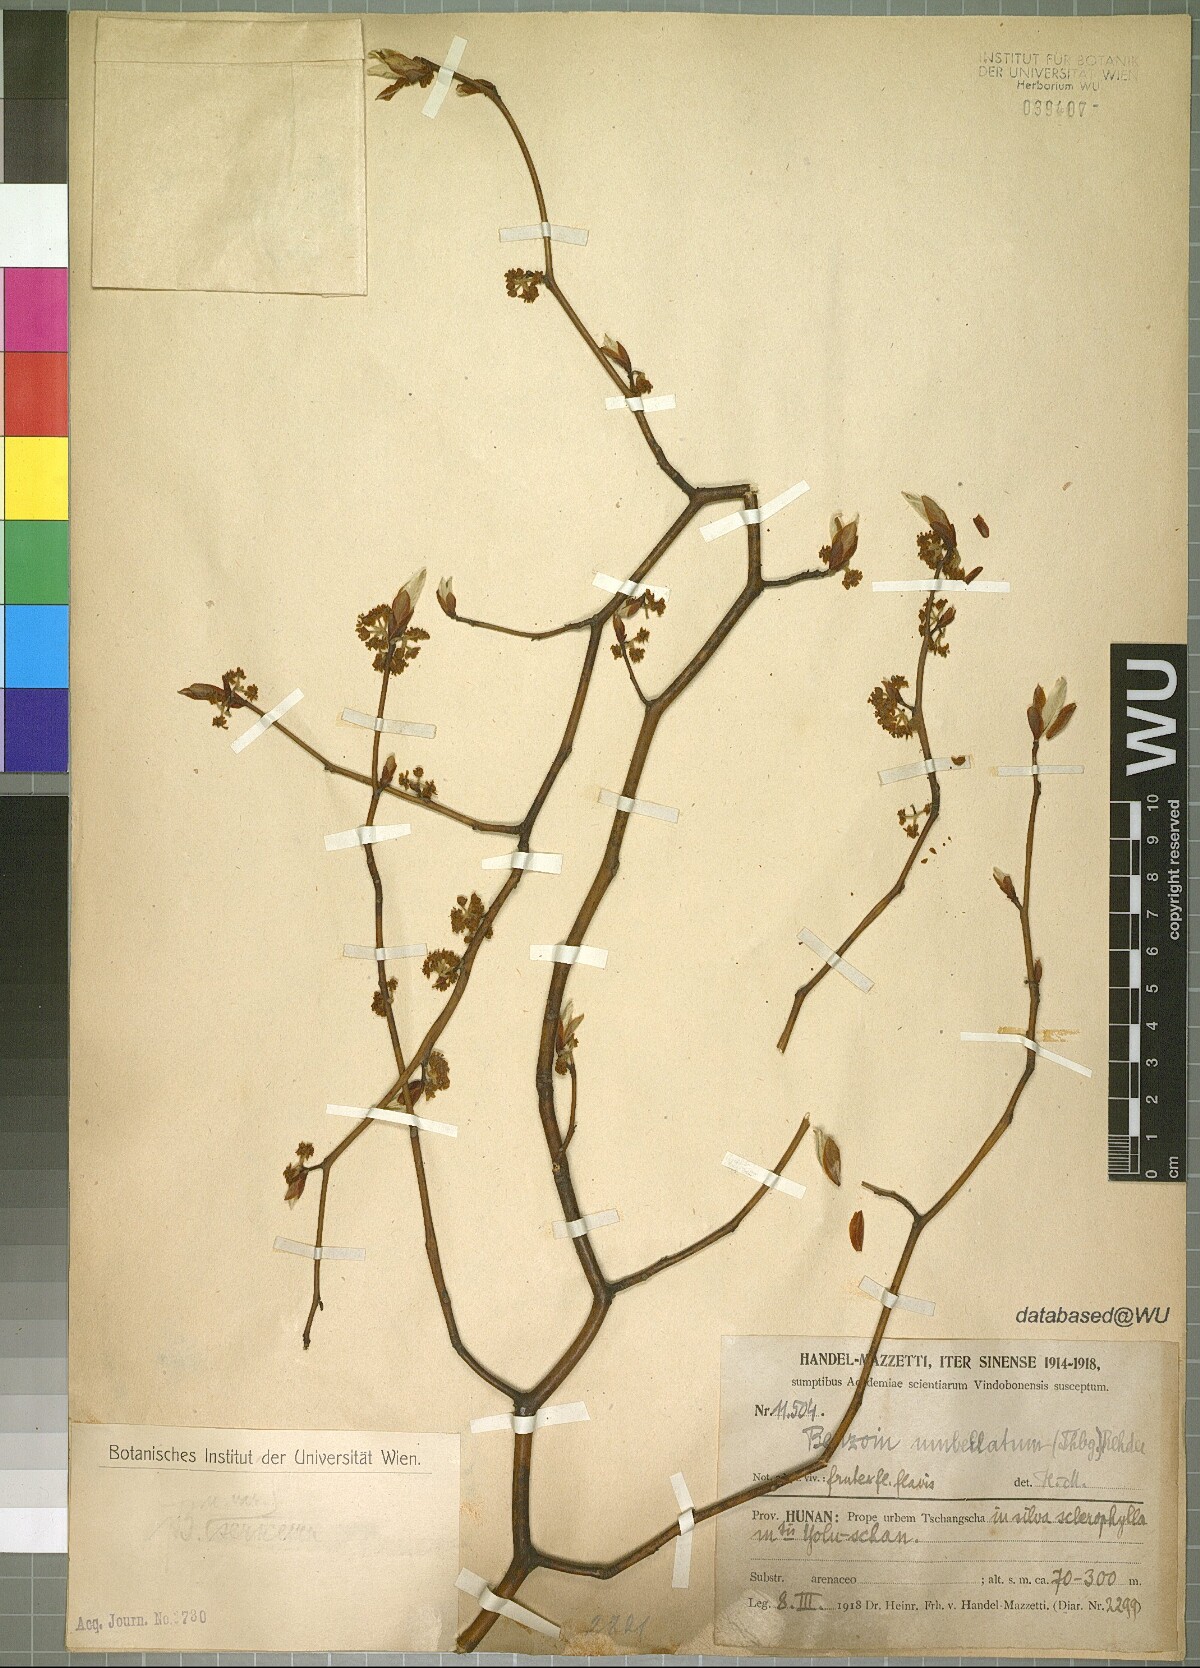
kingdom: Plantae
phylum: Tracheophyta
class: Magnoliopsida
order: Laurales
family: Lauraceae
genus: Lindera
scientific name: Lindera umbellata
